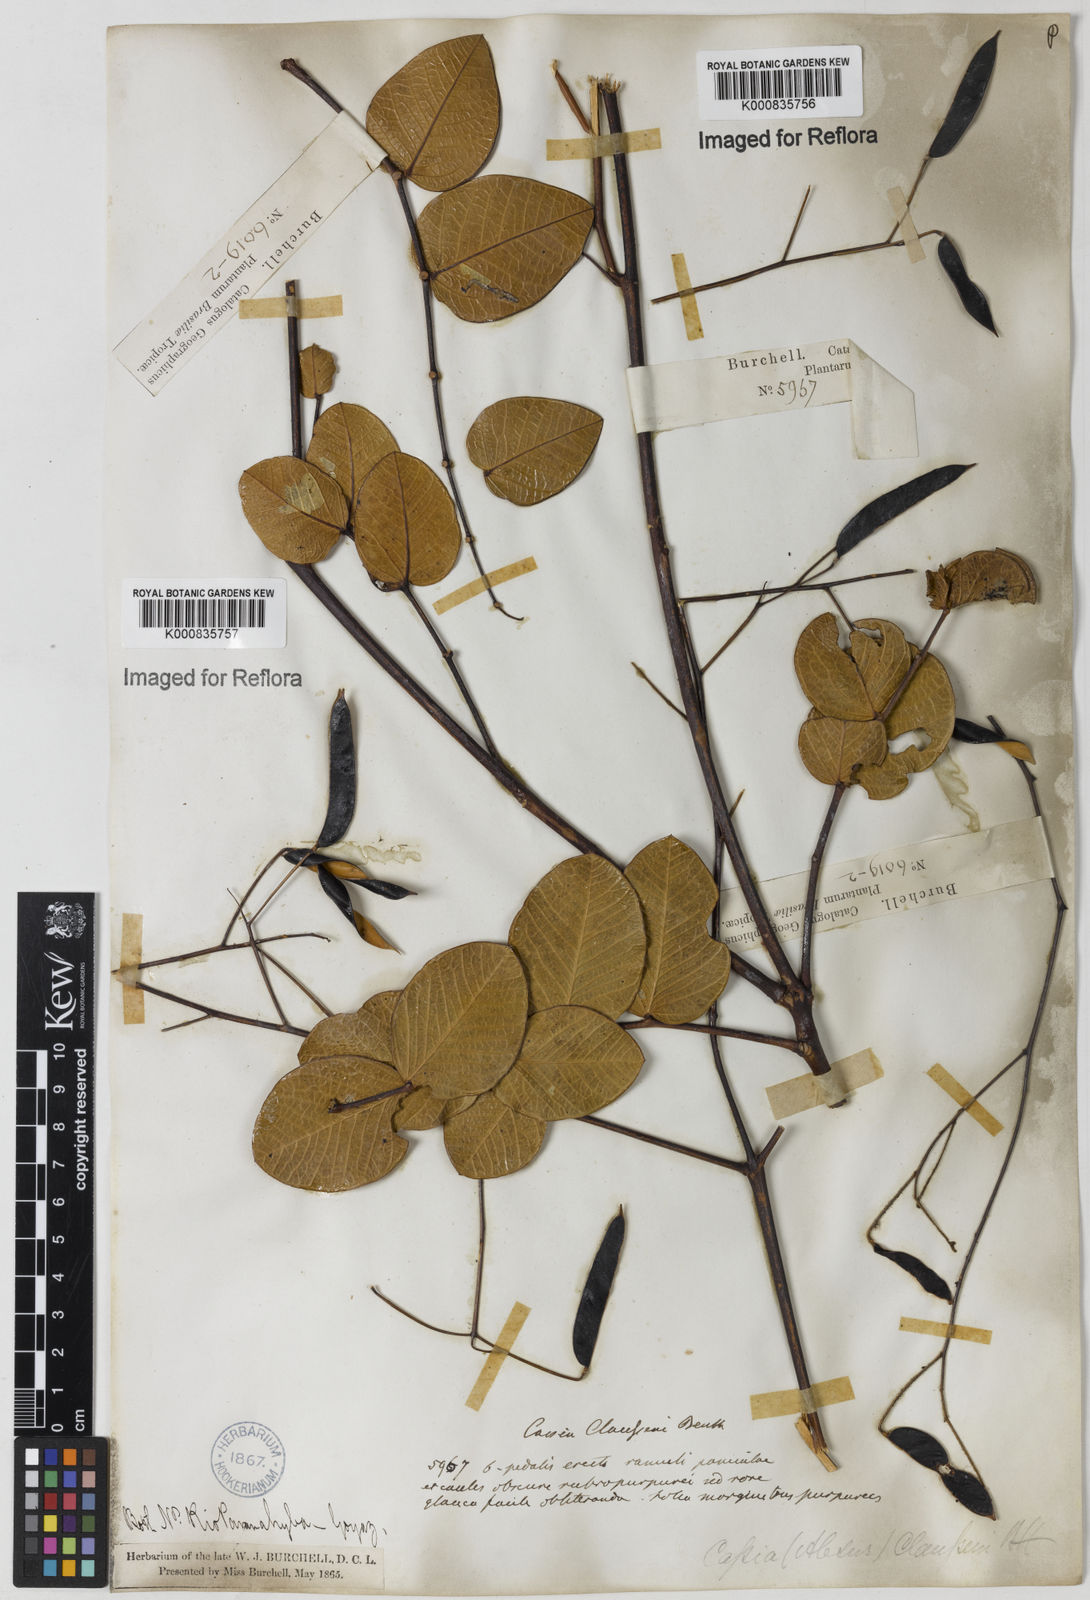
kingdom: Plantae
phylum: Tracheophyta
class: Magnoliopsida
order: Fabales
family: Fabaceae
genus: Chamaecrista
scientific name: Chamaecrista claussenii
